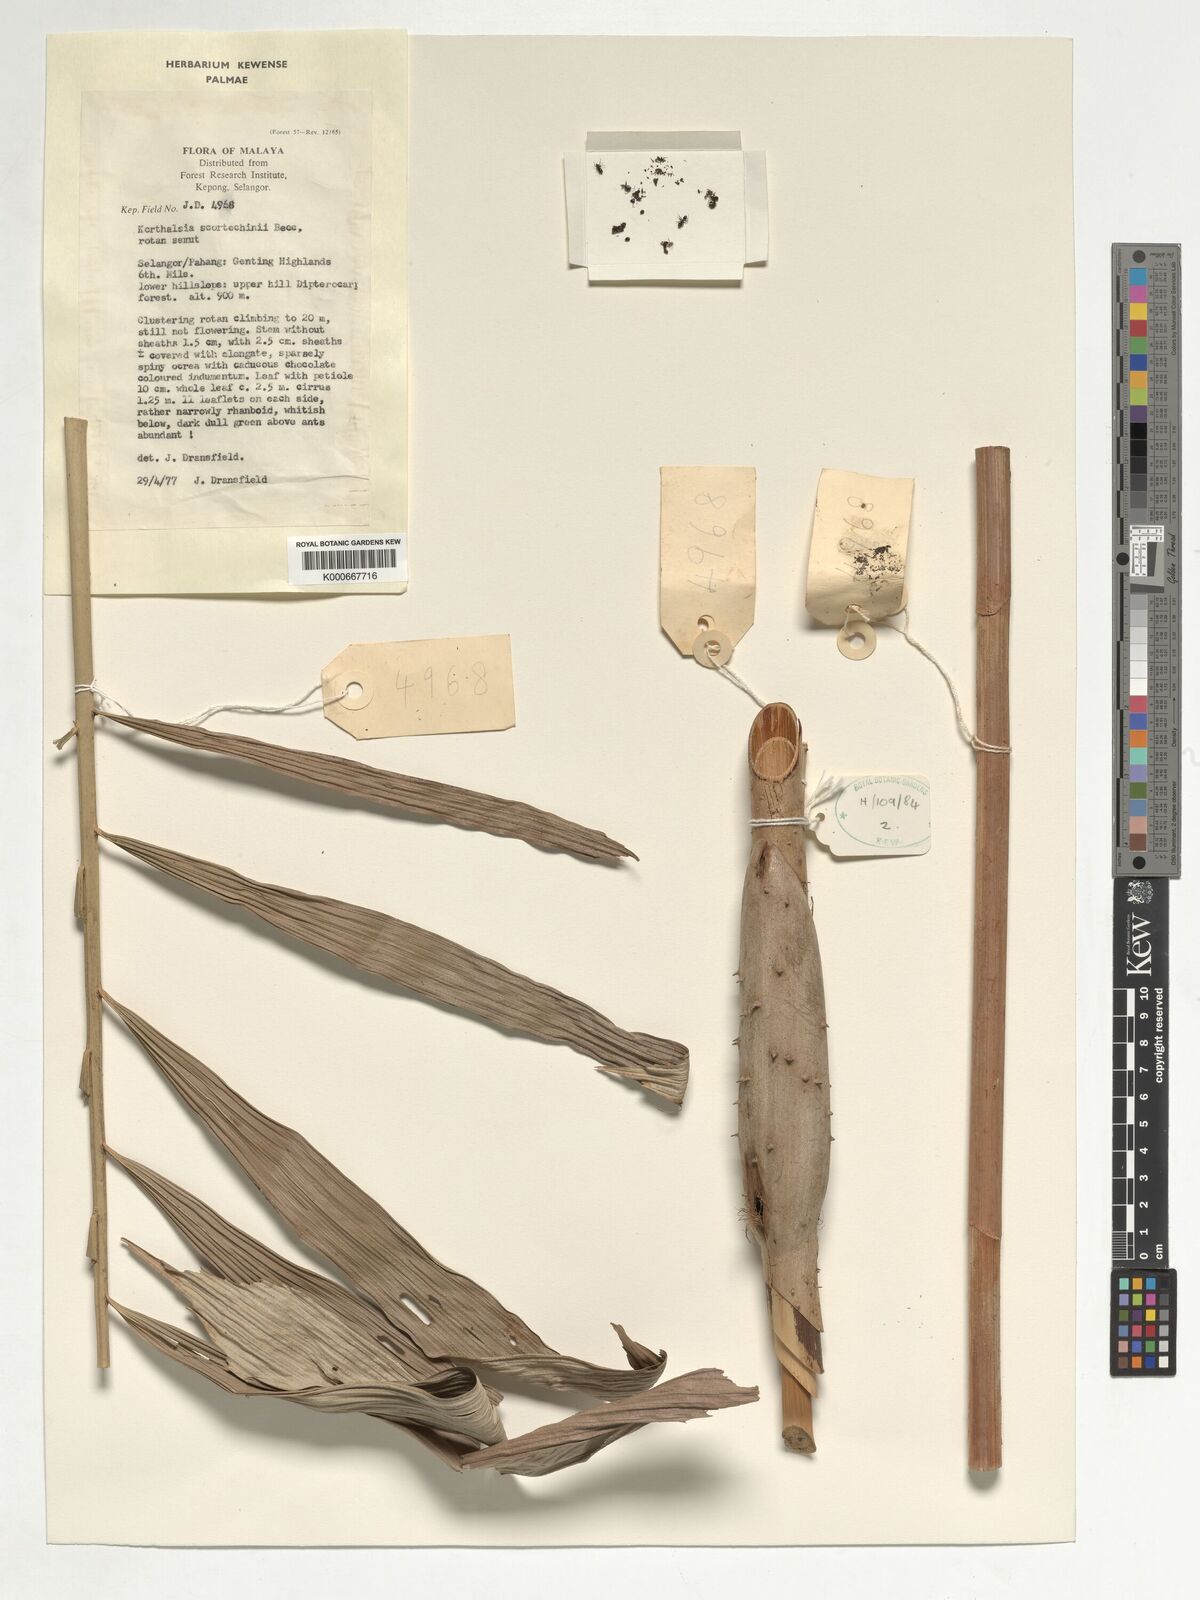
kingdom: Plantae
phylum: Tracheophyta
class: Liliopsida
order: Arecales
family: Arecaceae
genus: Korthalsia
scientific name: Korthalsia scortechinii
